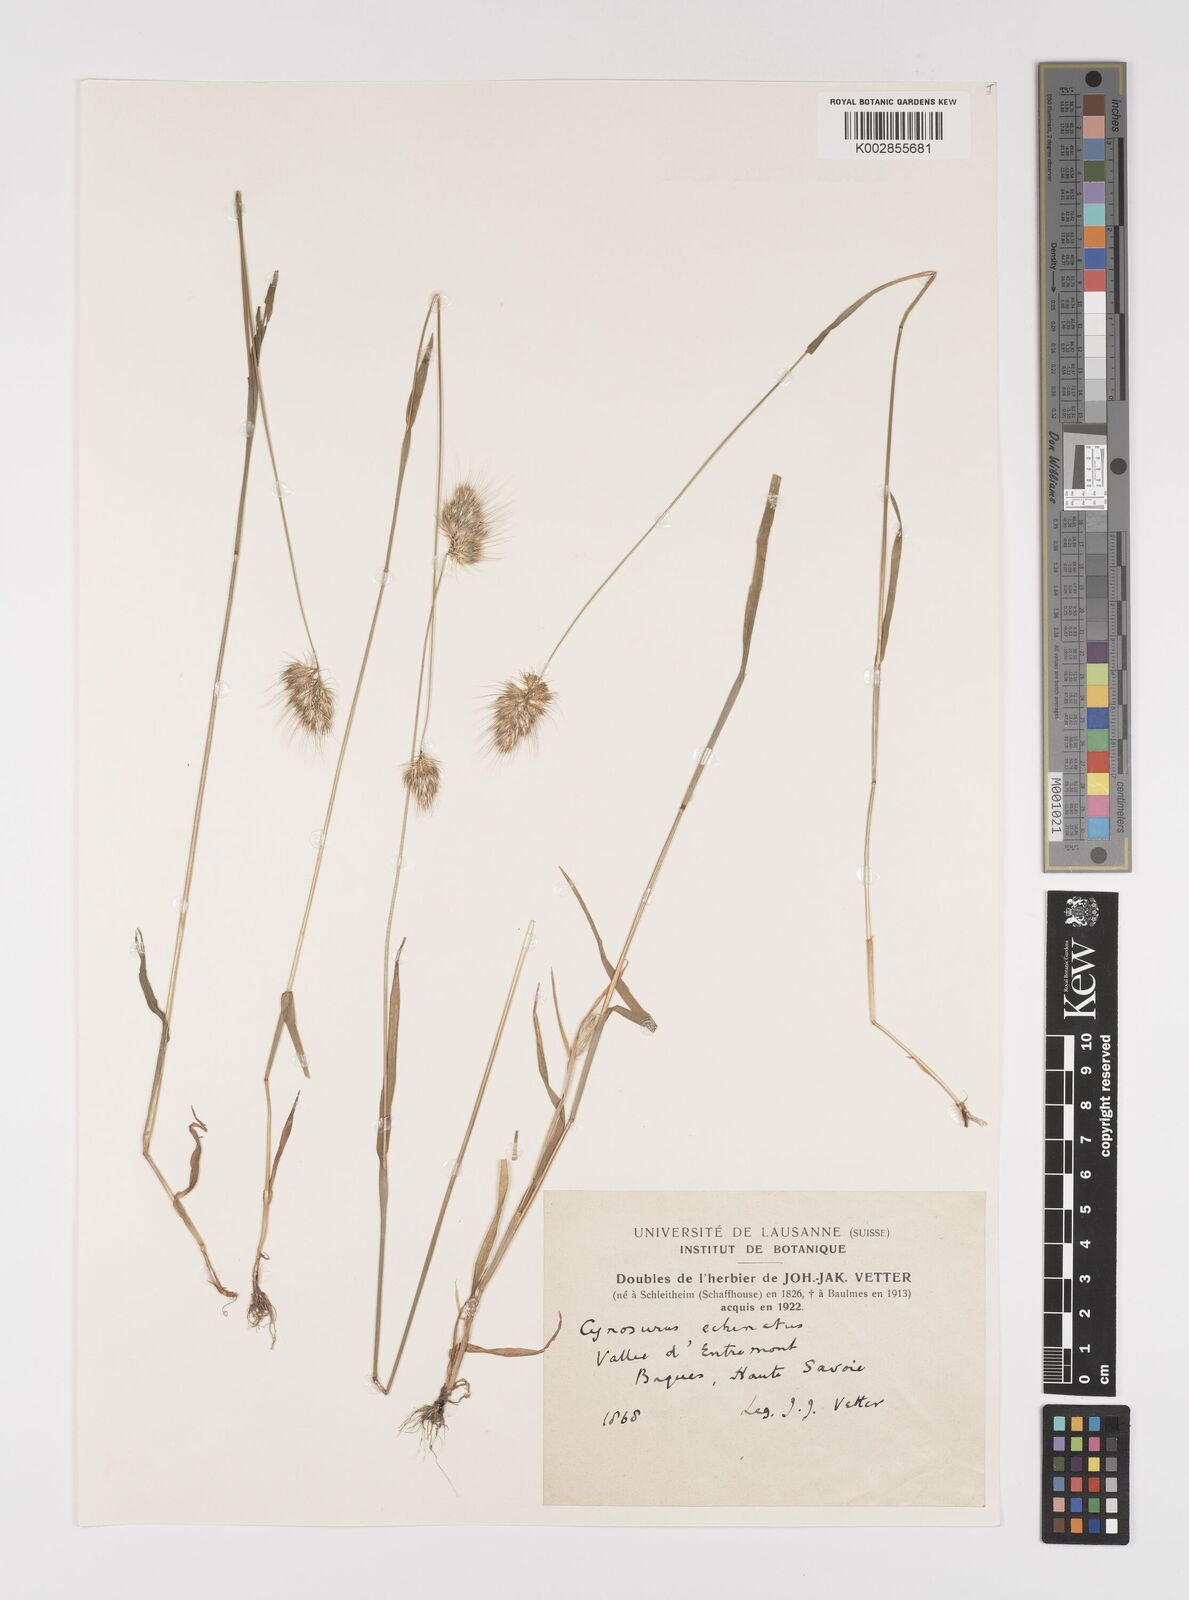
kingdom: Plantae
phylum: Tracheophyta
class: Liliopsida
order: Poales
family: Poaceae
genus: Cynosurus
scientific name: Cynosurus echinatus
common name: Rough dog's-tail
